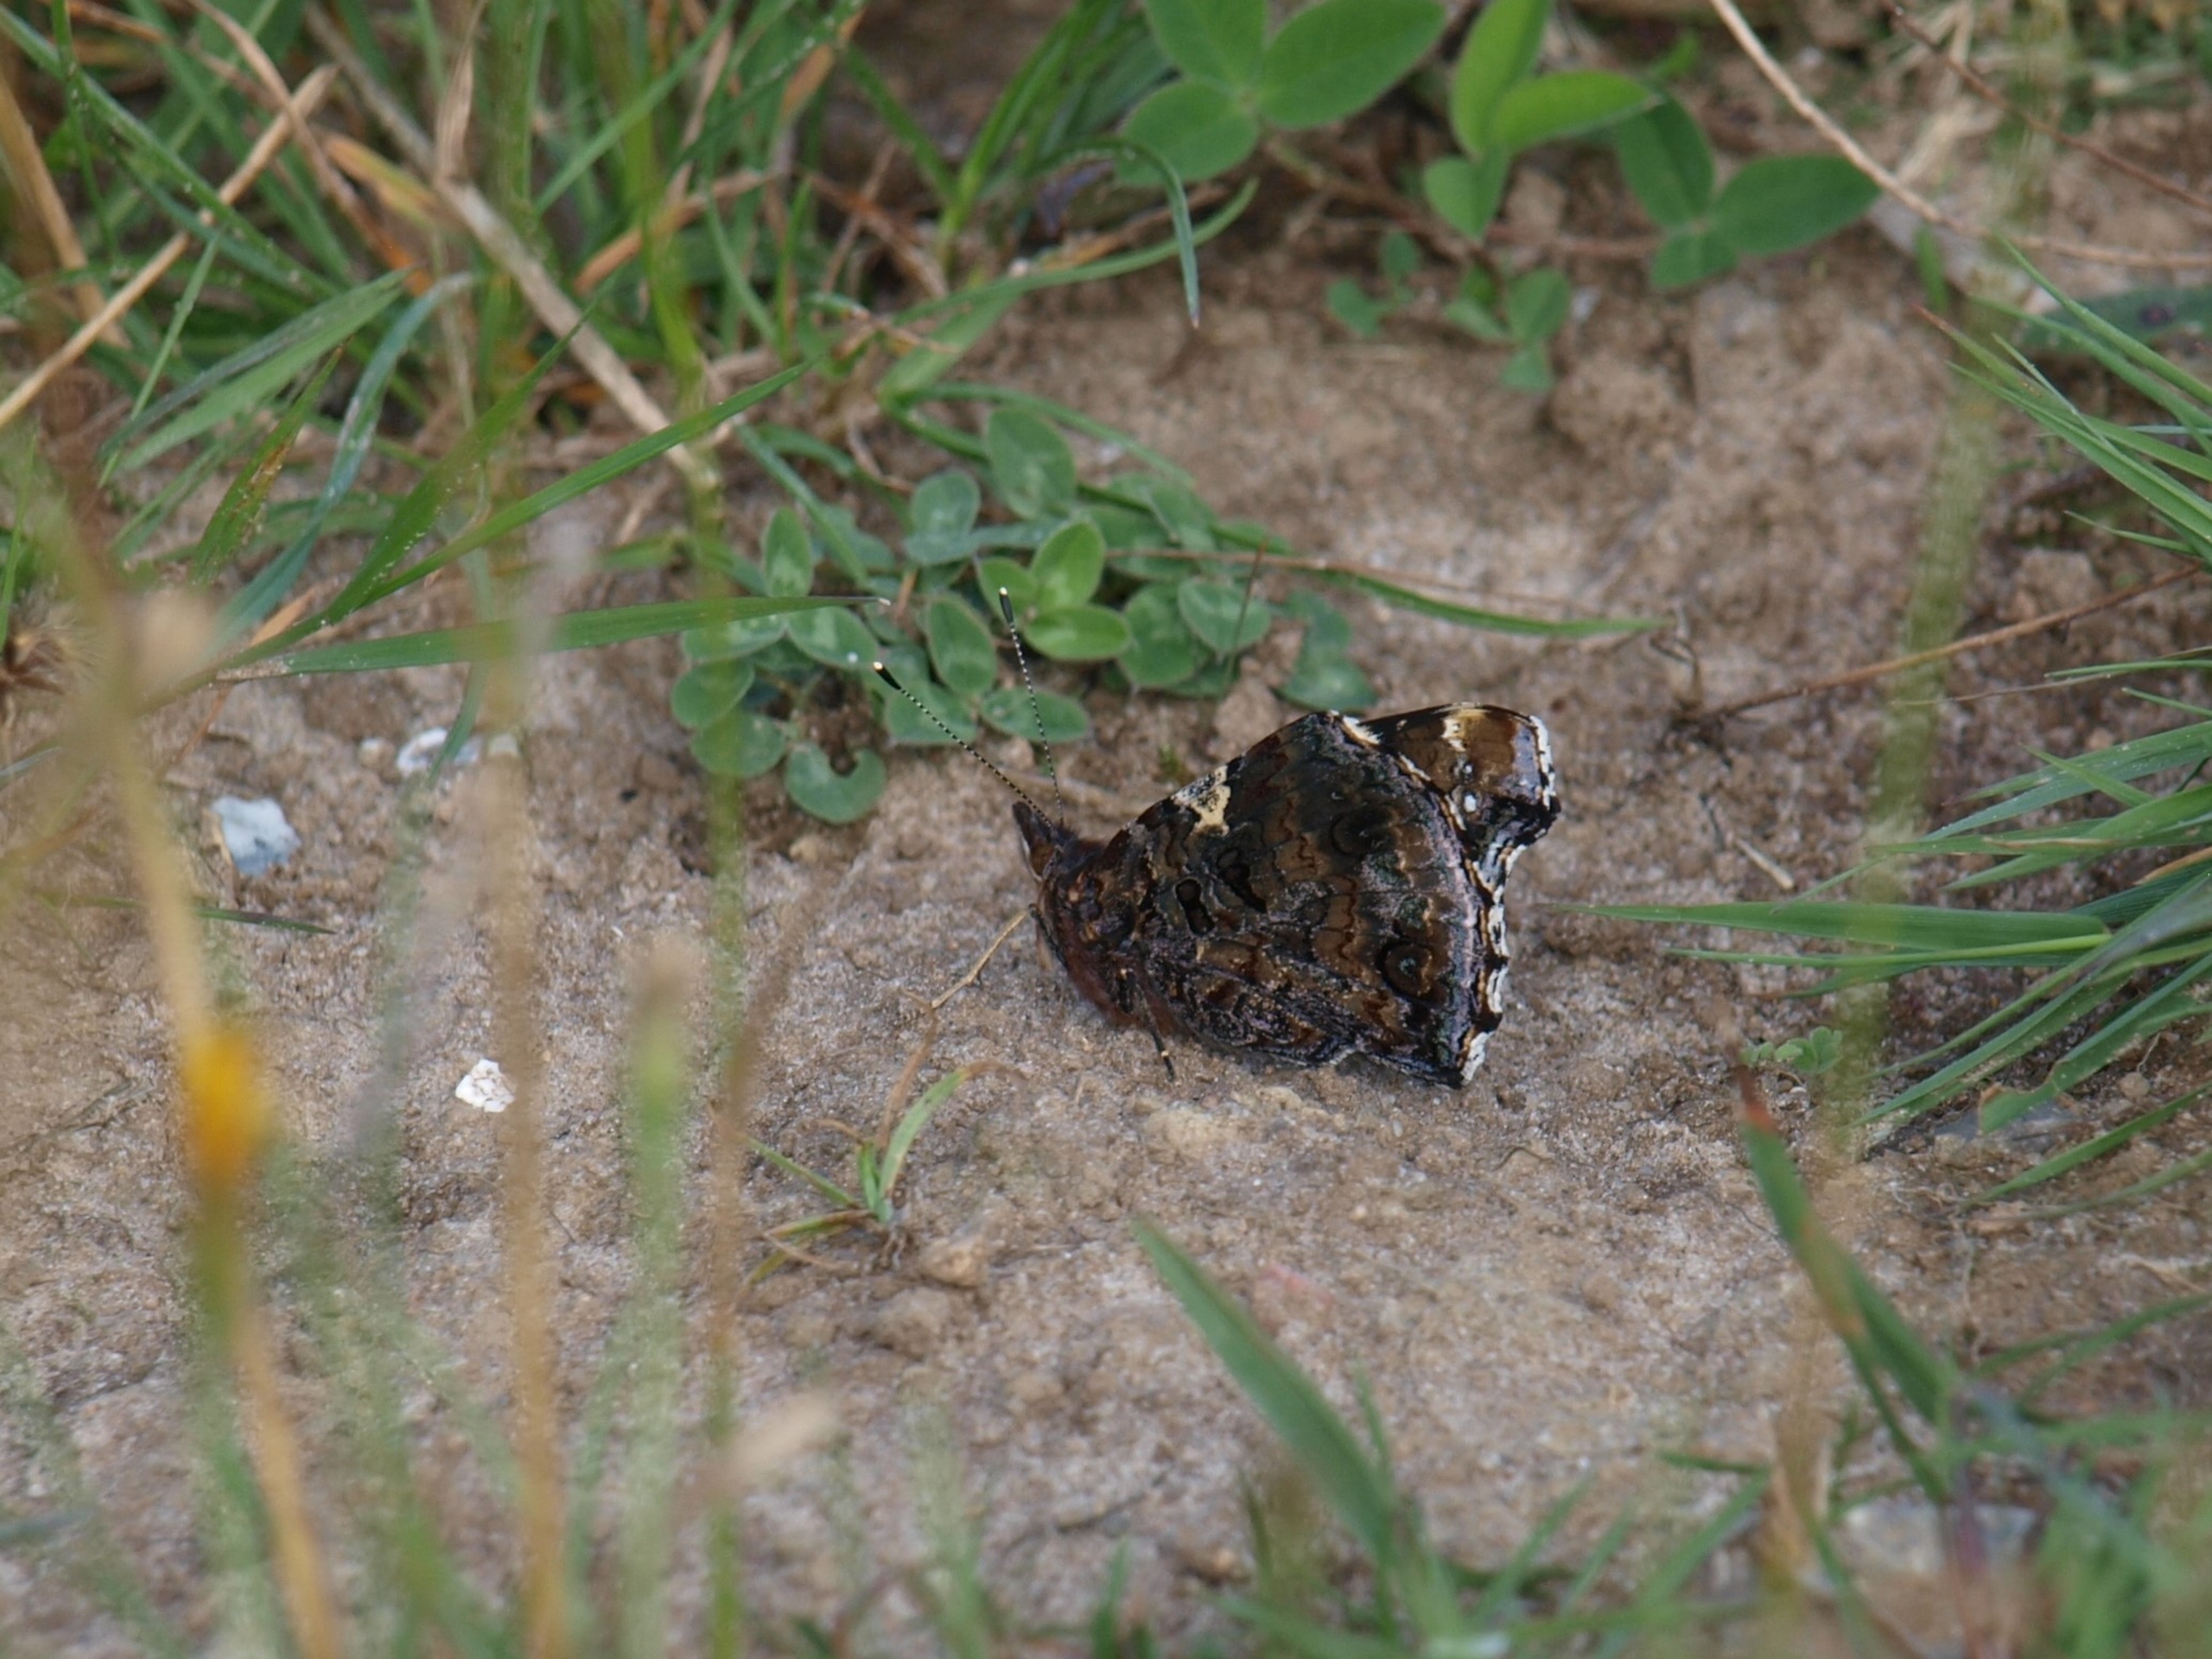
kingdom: Animalia
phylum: Arthropoda
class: Insecta
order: Lepidoptera
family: Nymphalidae
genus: Vanessa
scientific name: Vanessa atalanta
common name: Admiral
